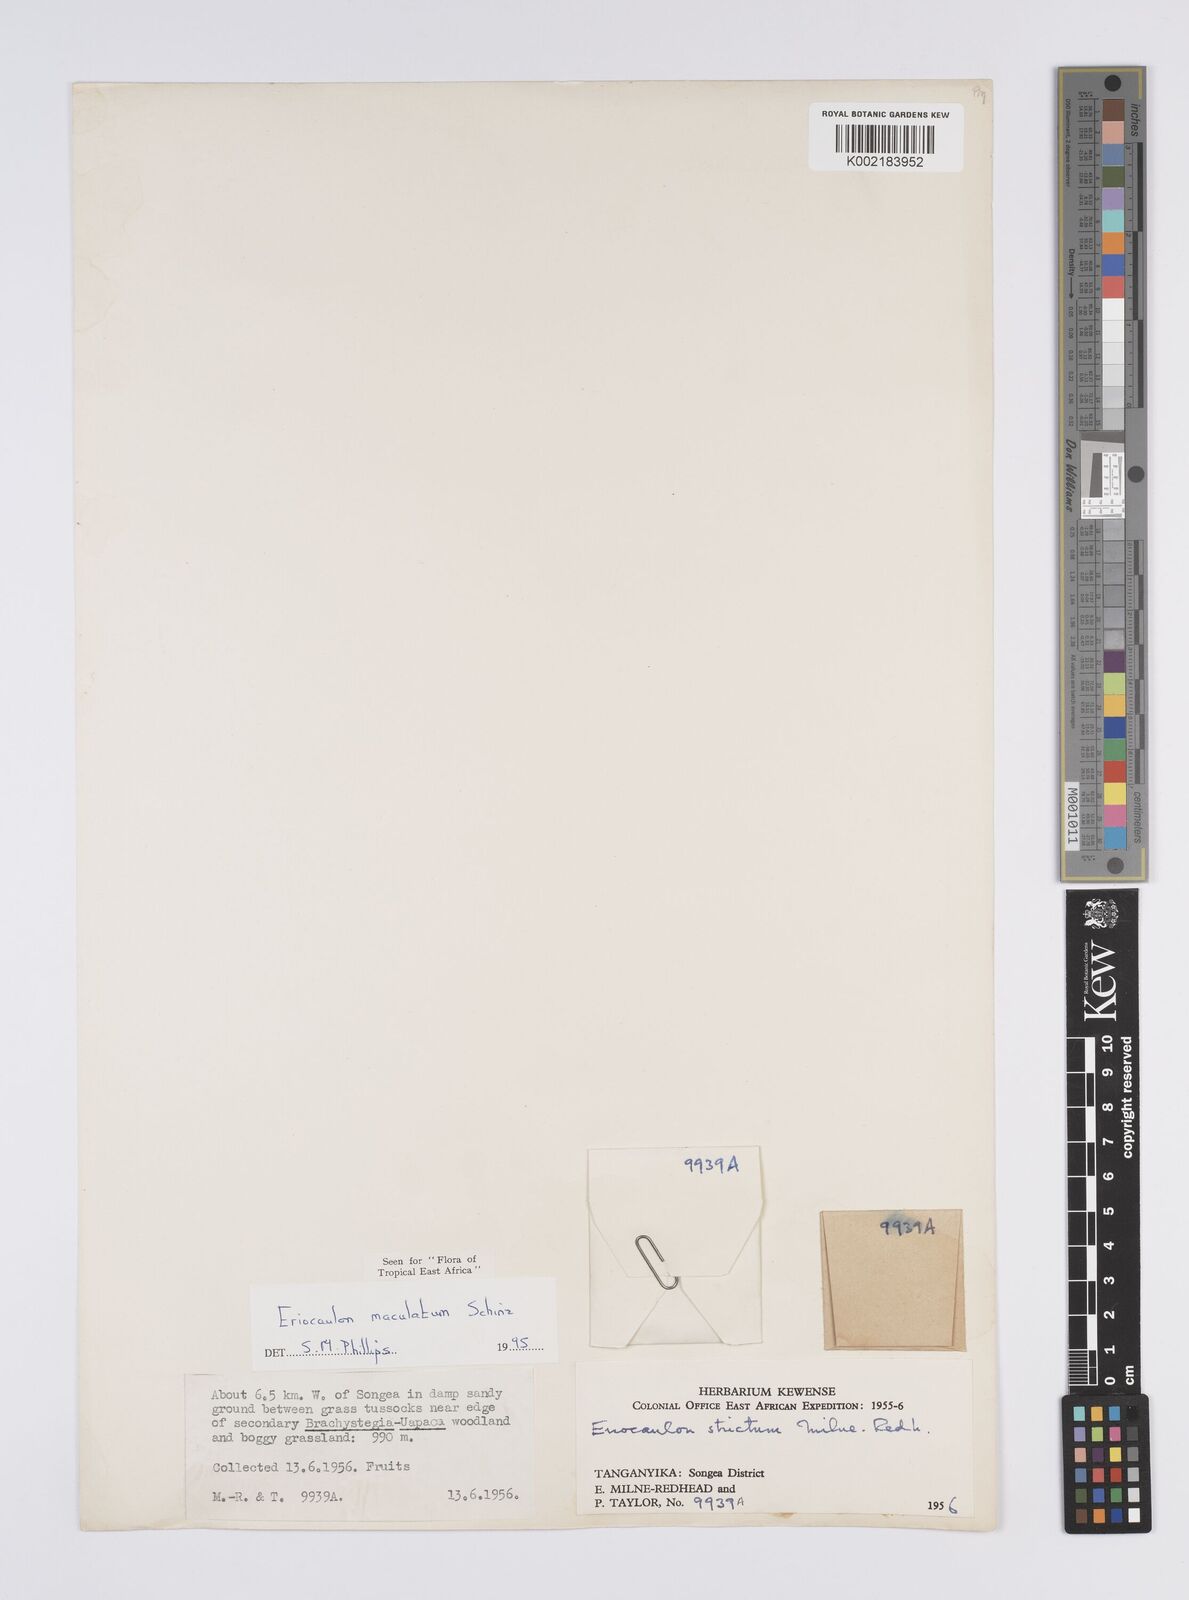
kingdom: Plantae
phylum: Tracheophyta
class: Liliopsida
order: Poales
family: Eriocaulaceae
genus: Eriocaulon
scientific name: Eriocaulon maculatum
